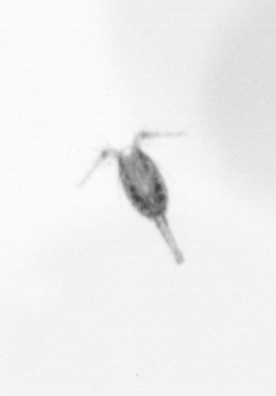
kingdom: Animalia
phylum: Arthropoda
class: Copepoda
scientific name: Copepoda
